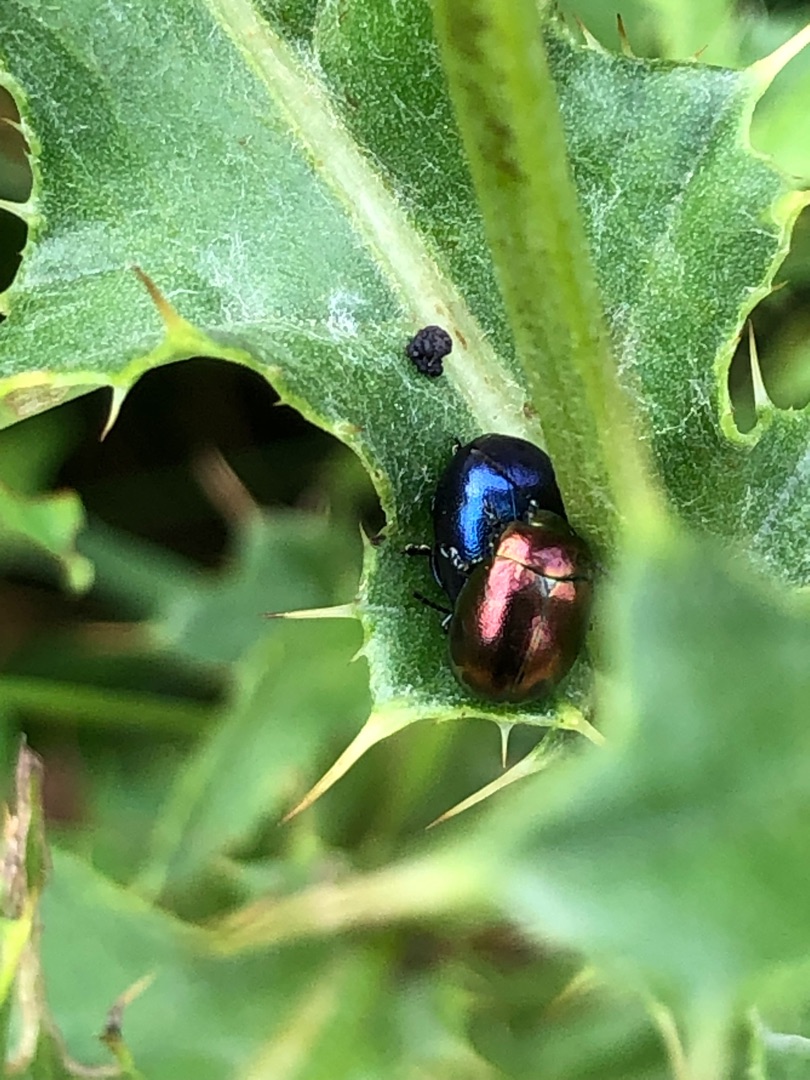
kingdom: Animalia
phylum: Arthropoda
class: Insecta
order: Coleoptera
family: Chrysomelidae
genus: Chrysolina
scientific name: Chrysolina varians
